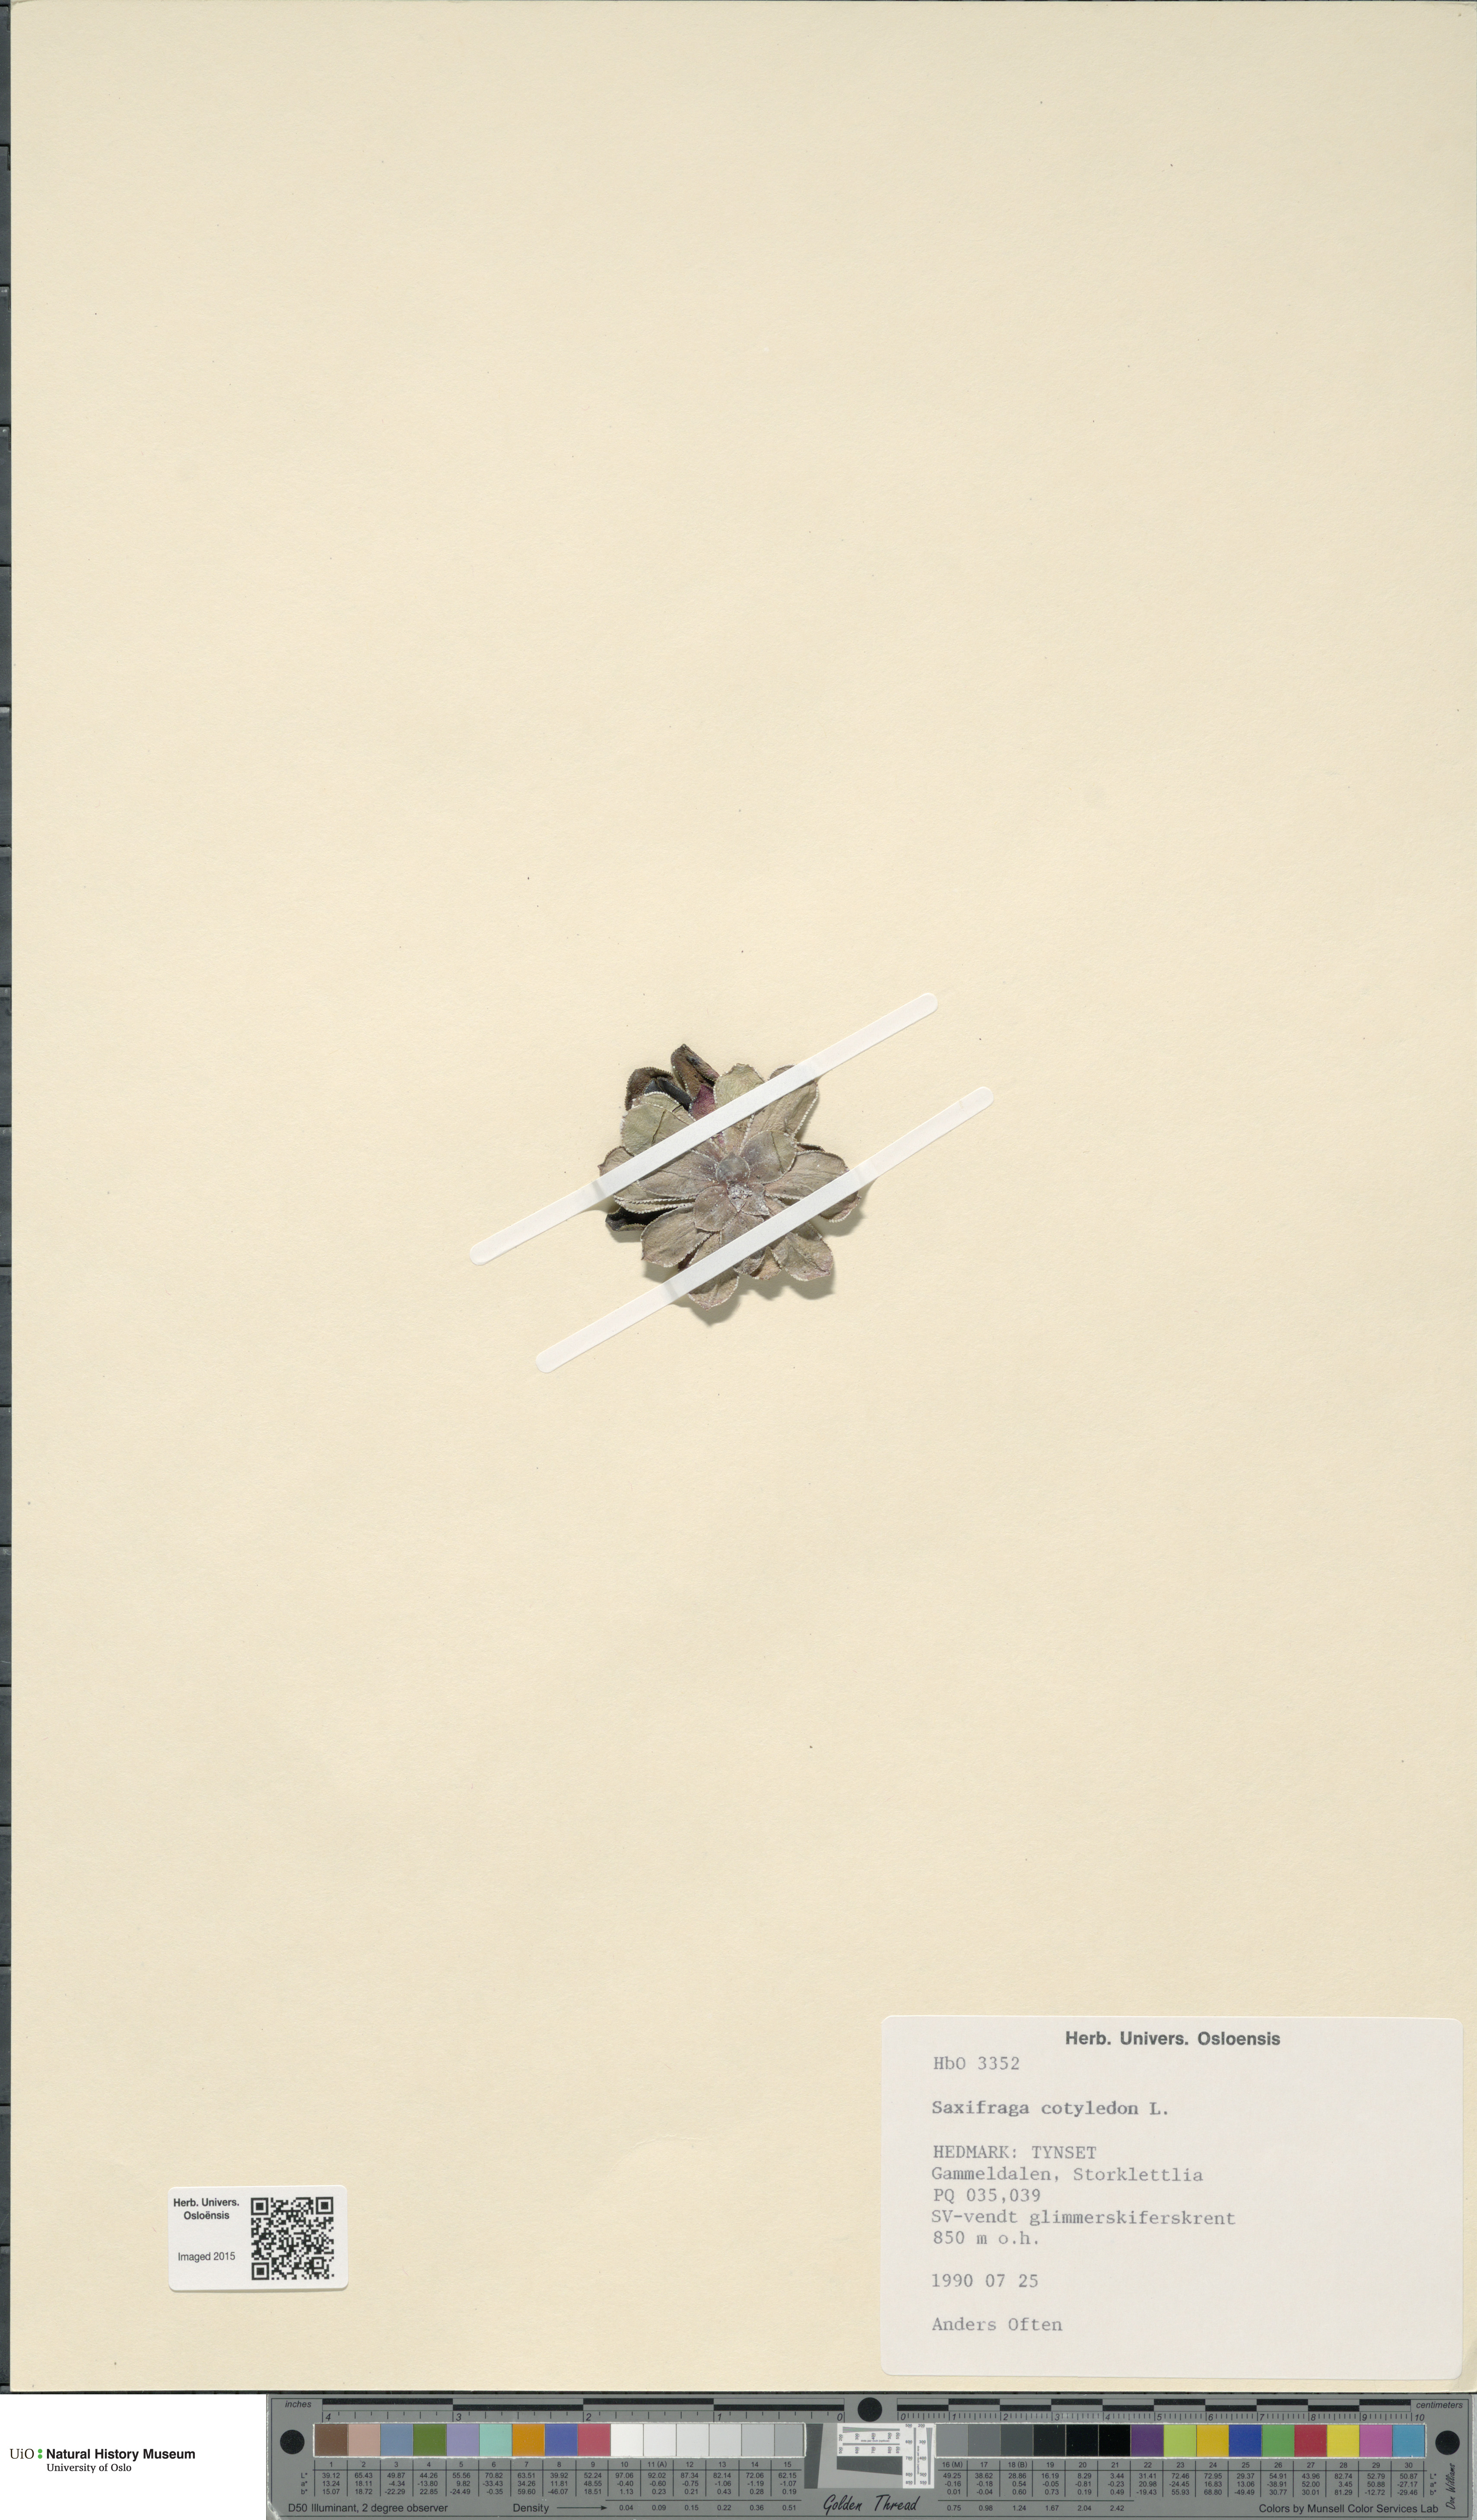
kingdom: Plantae
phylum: Tracheophyta
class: Magnoliopsida
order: Saxifragales
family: Saxifragaceae
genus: Saxifraga
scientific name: Saxifraga cotyledon
